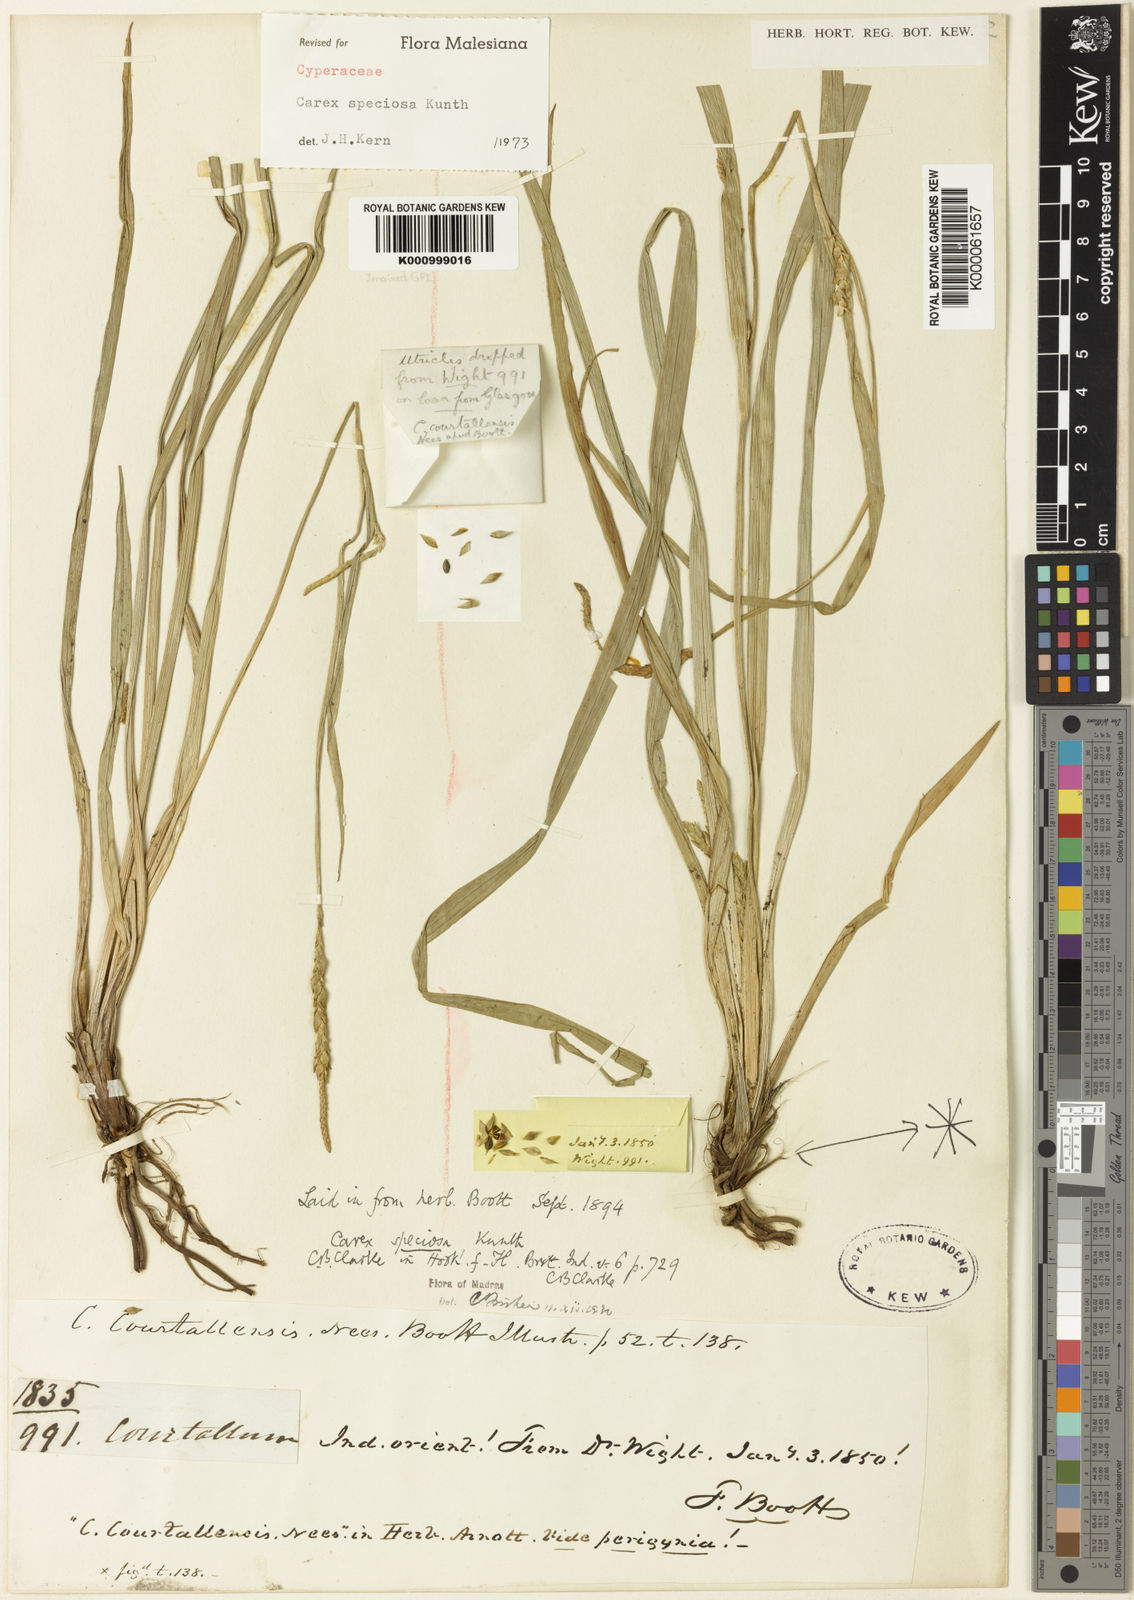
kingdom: Plantae
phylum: Tracheophyta
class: Liliopsida
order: Poales
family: Cyperaceae
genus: Carex
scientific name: Carex speciosa
